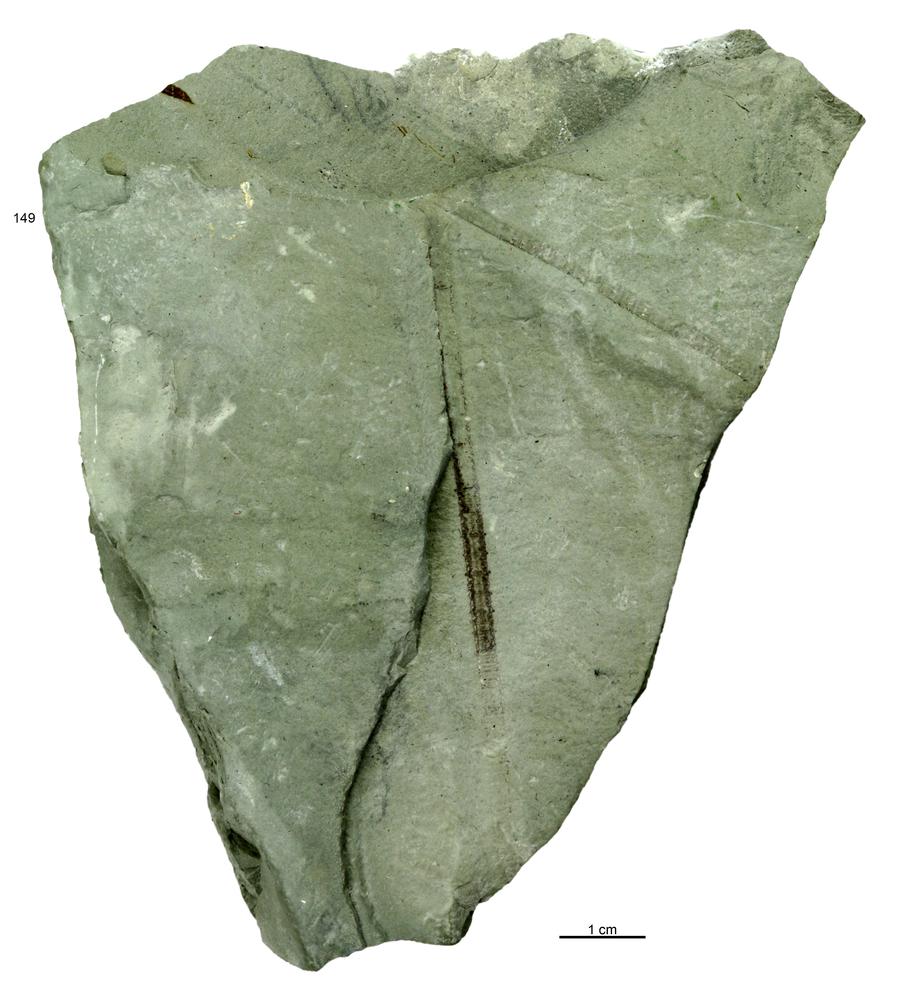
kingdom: Animalia
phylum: Echinodermata
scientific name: Echinodermata
